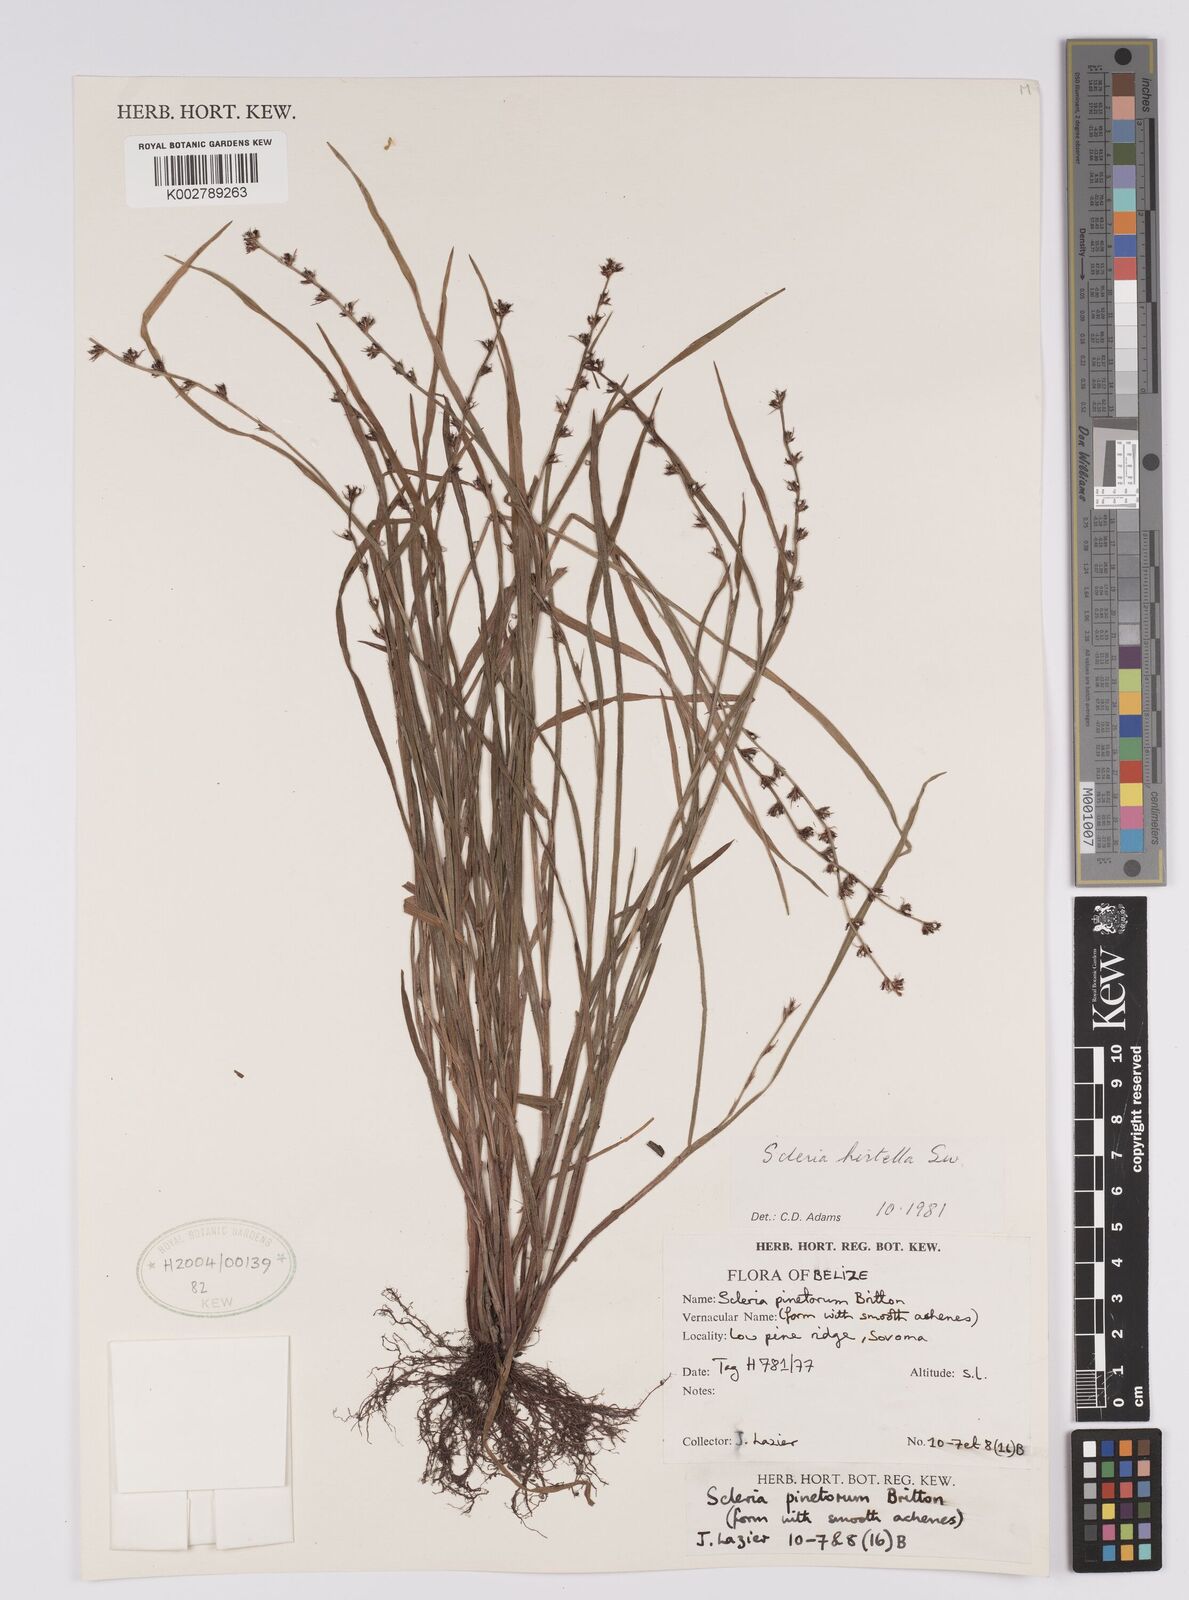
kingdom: Plantae
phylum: Tracheophyta
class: Liliopsida
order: Poales
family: Cyperaceae
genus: Scleria
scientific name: Scleria hirtella
